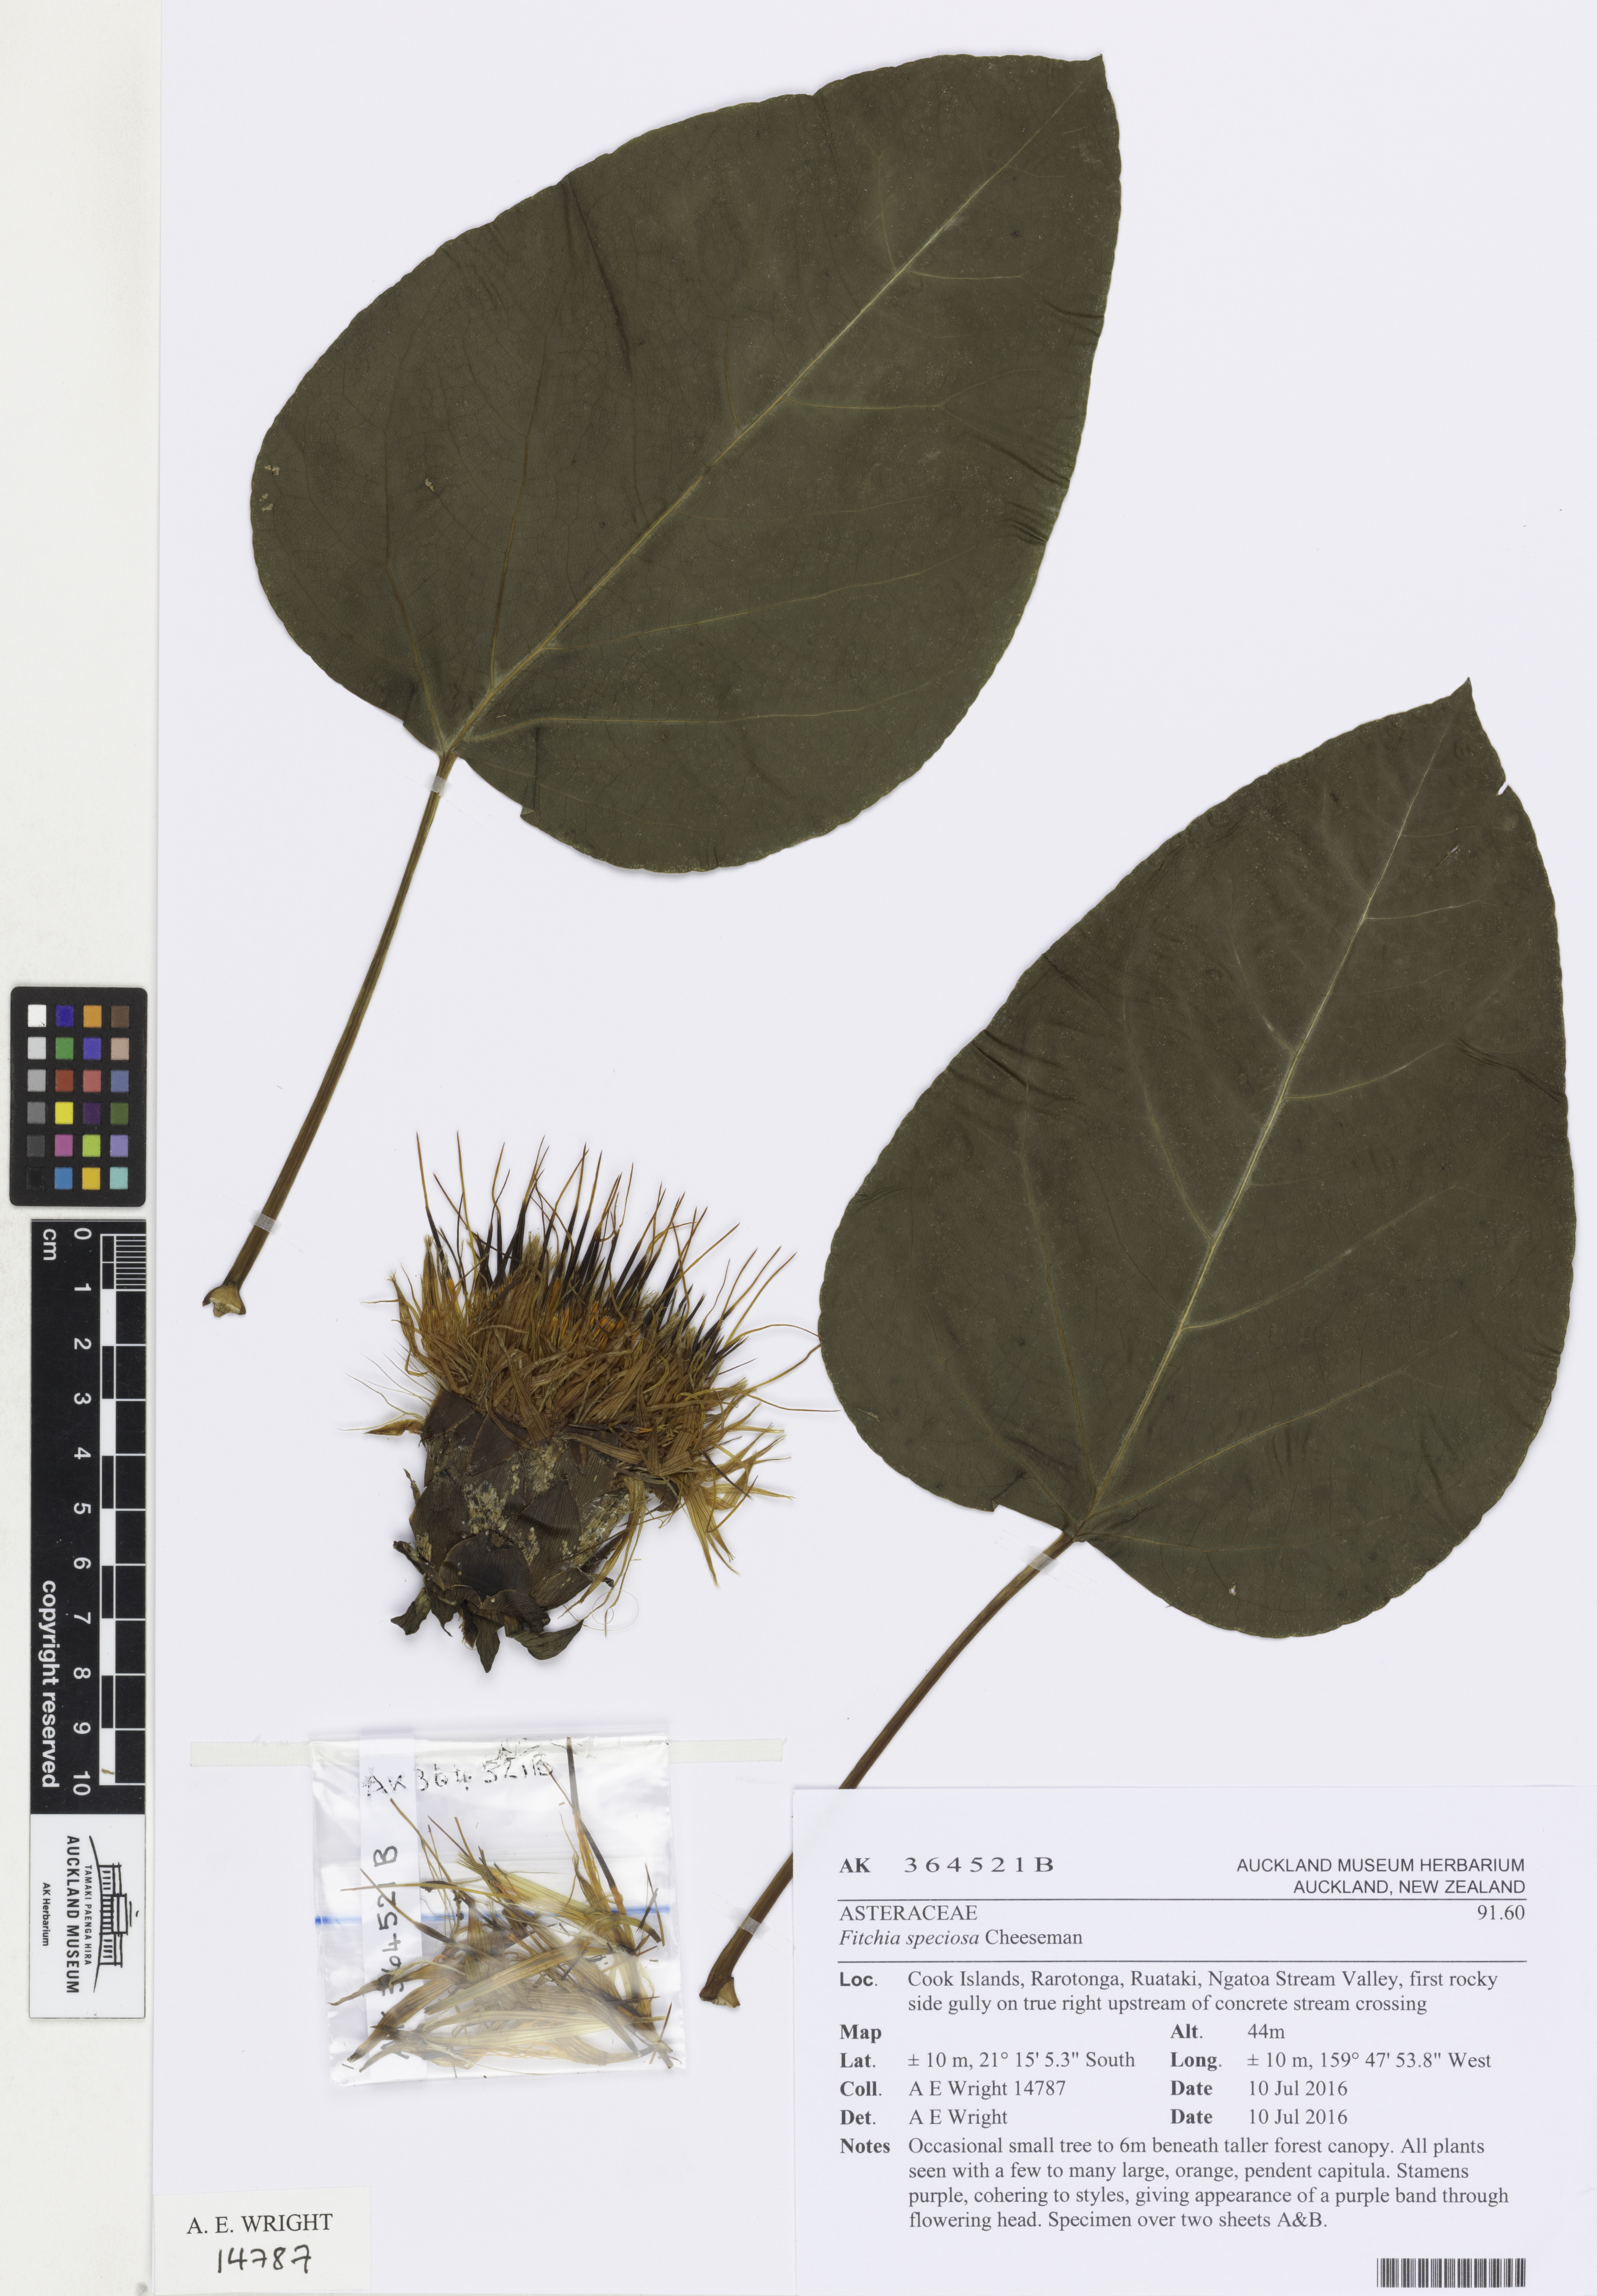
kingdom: Plantae
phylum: Tracheophyta
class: Magnoliopsida
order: Asterales
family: Asteraceae
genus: Fitchia
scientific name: Fitchia speciosa
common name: Burr daisytree
